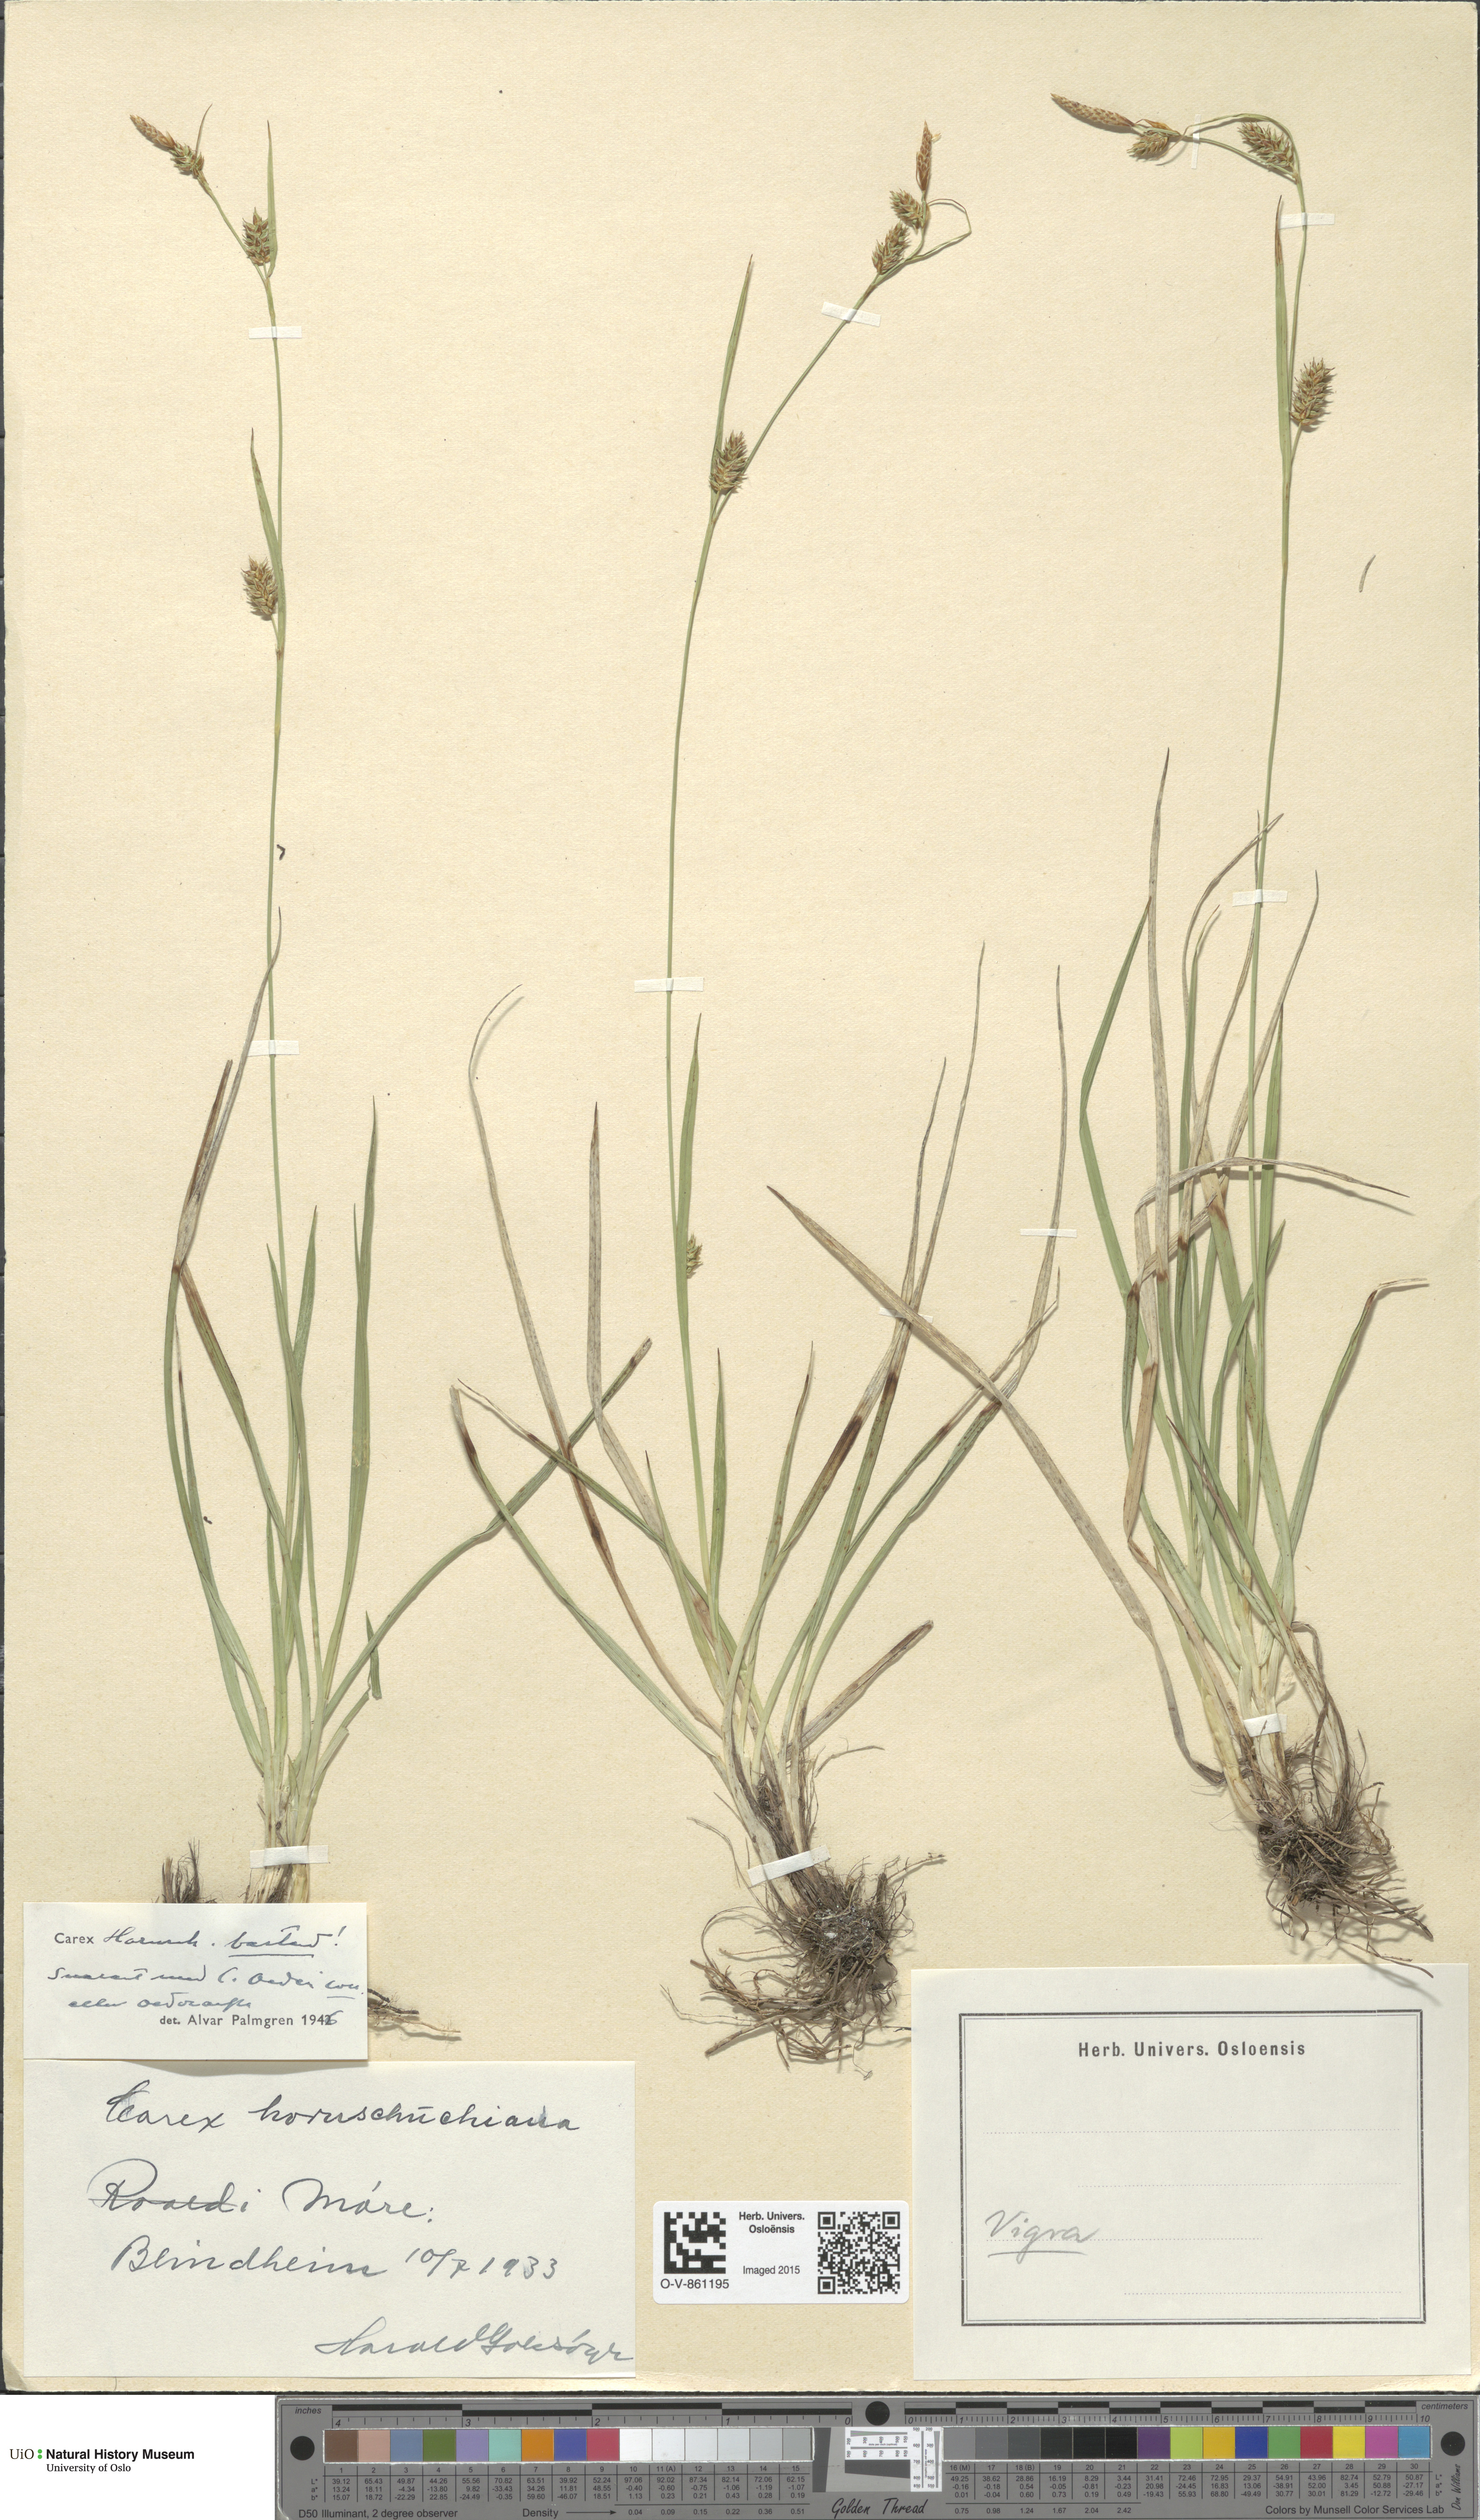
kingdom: Plantae
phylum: Tracheophyta
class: Liliopsida
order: Poales
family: Cyperaceae
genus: Carex
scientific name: Carex
